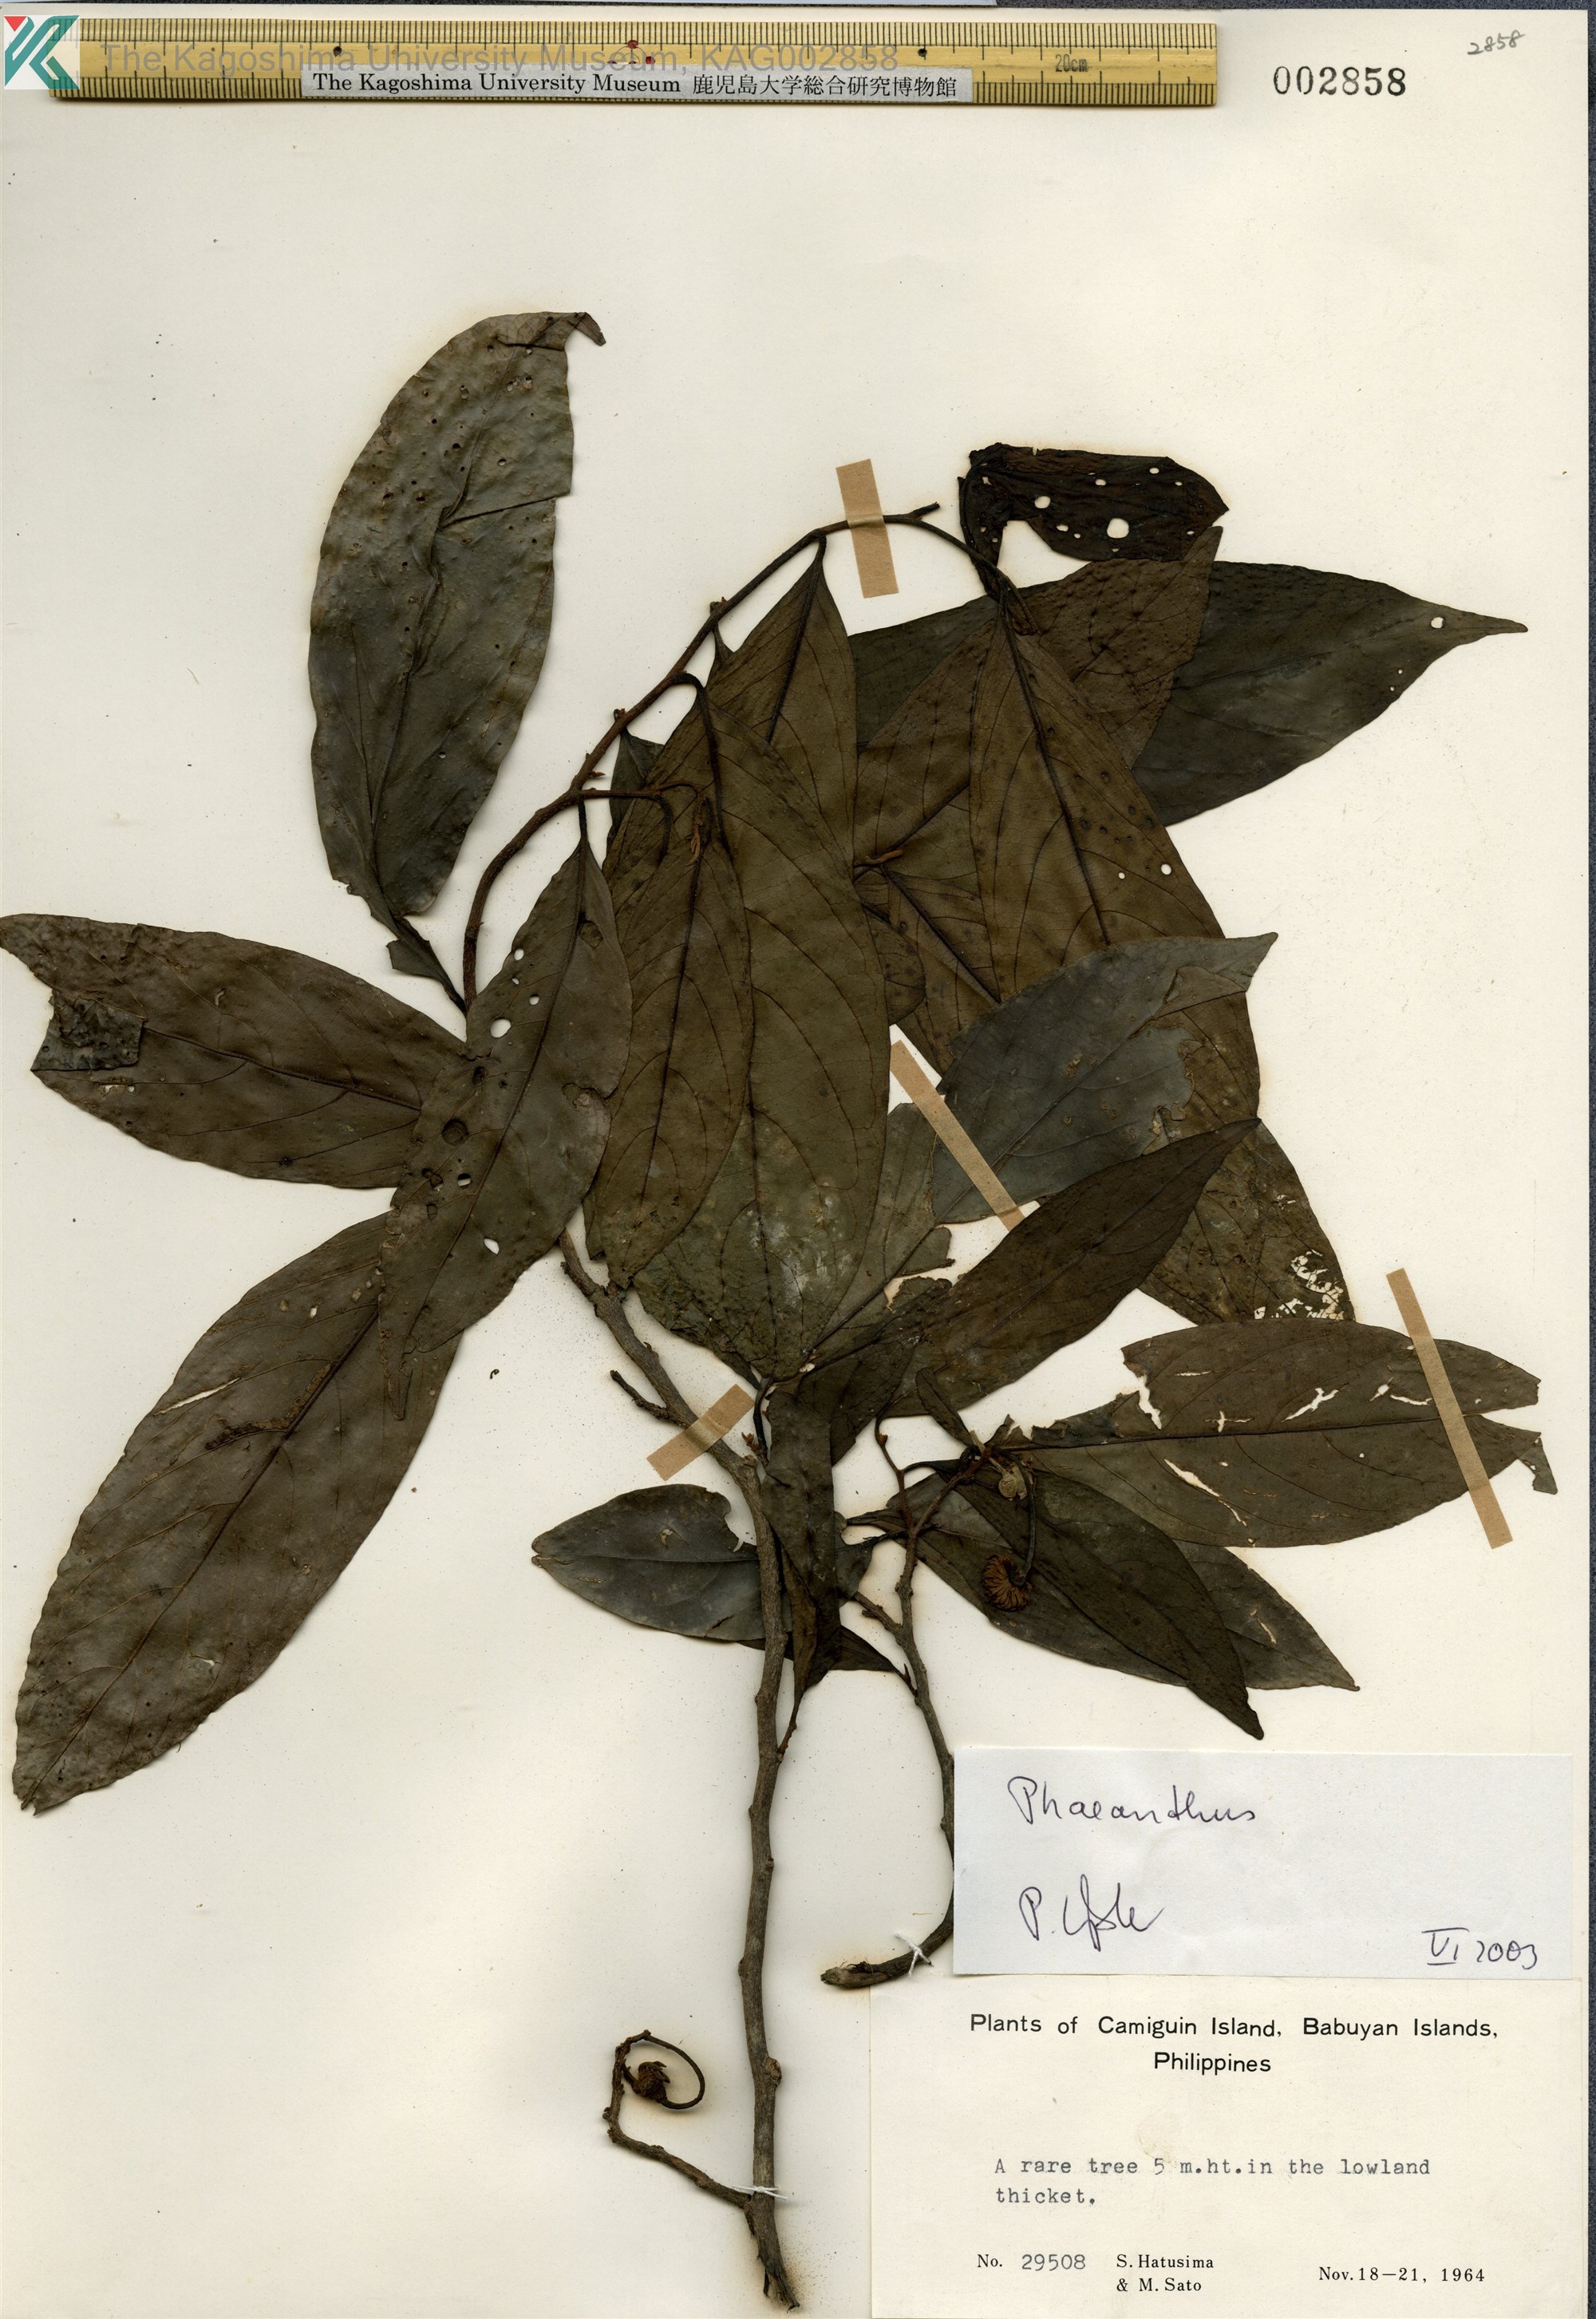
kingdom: Plantae
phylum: Tracheophyta
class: Magnoliopsida
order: Magnoliales
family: Annonaceae
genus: Phaeanthus
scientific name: Phaeanthus
